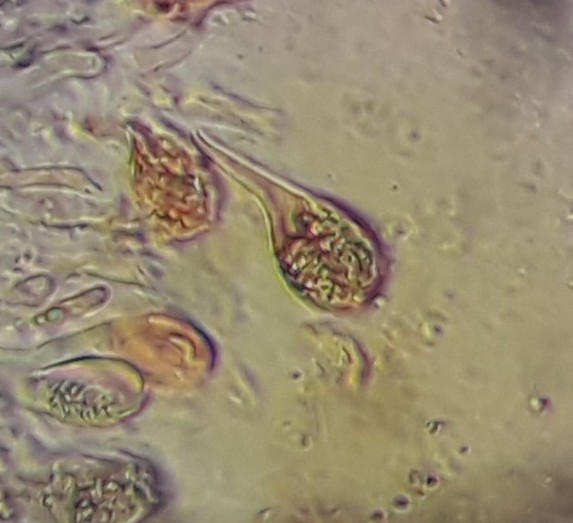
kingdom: Fungi
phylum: Basidiomycota
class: Tremellomycetes
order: Tremellales
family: Tremellaceae
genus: Tremella
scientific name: Tremella exigua
